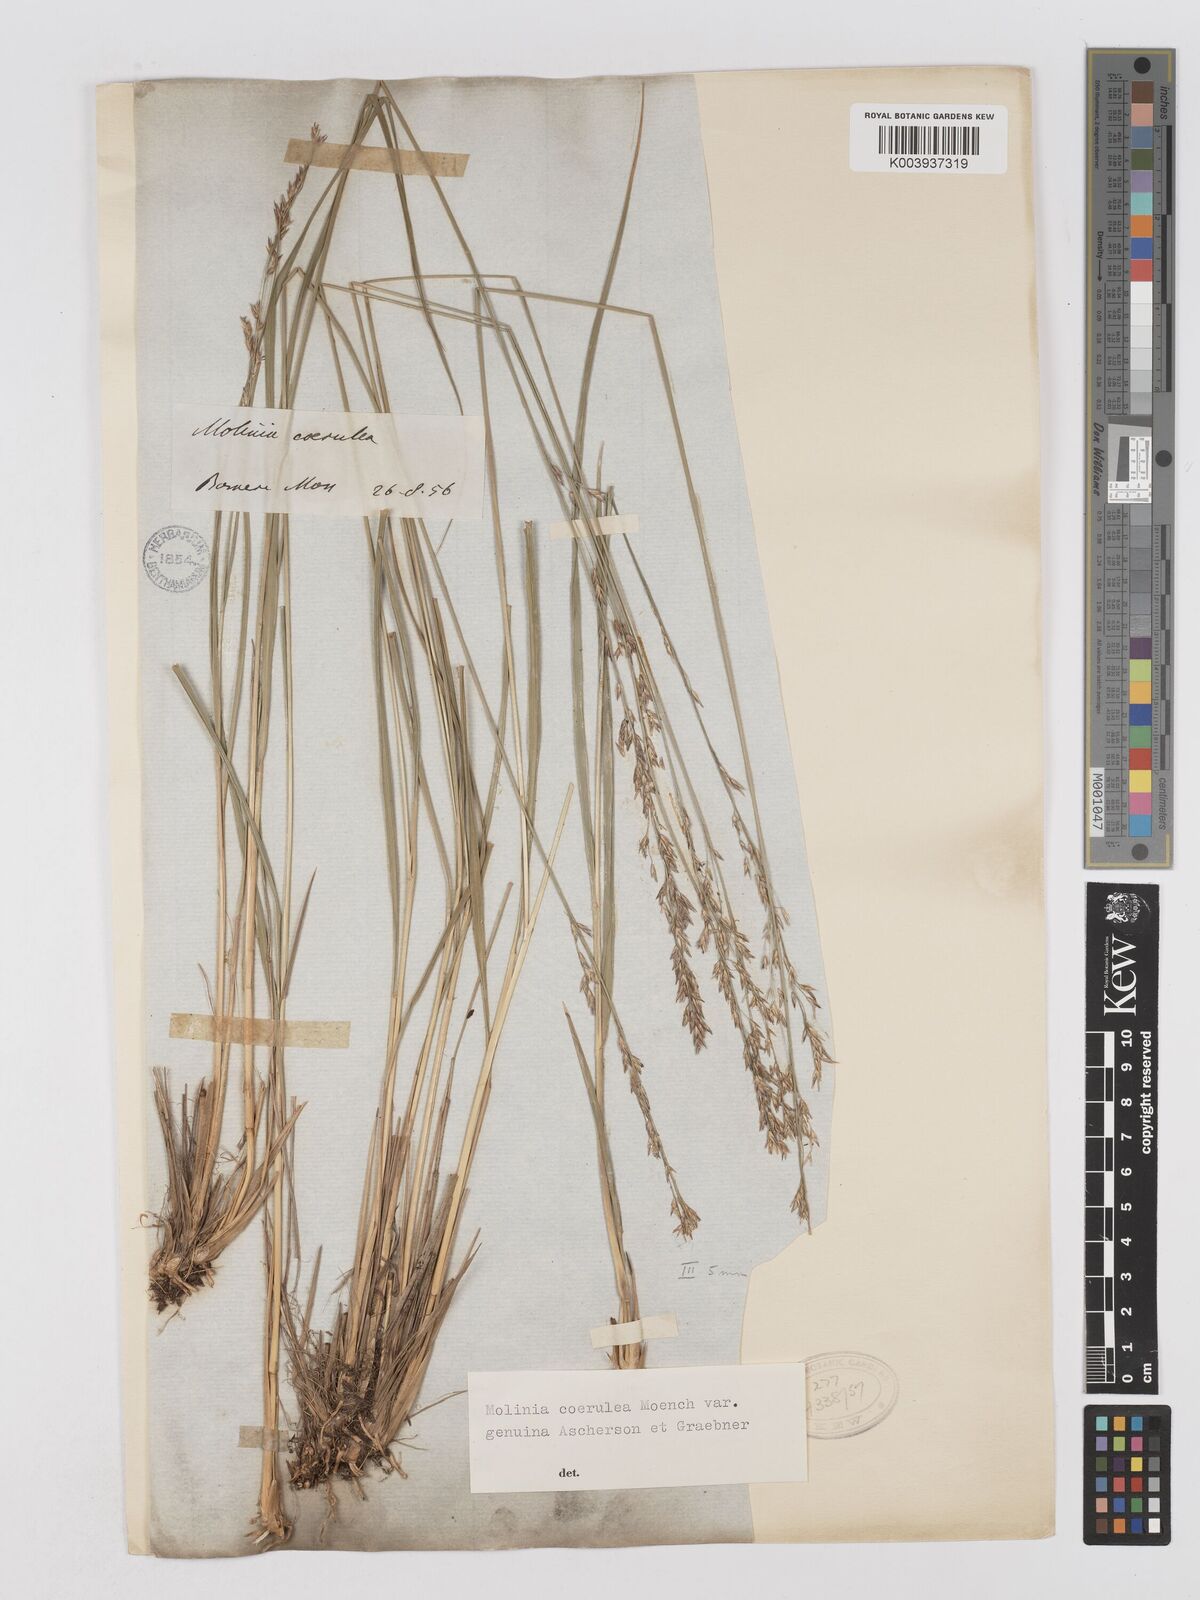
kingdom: Plantae
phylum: Tracheophyta
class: Liliopsida
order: Poales
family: Poaceae
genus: Molinia
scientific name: Molinia caerulea
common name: Purple moor-grass
